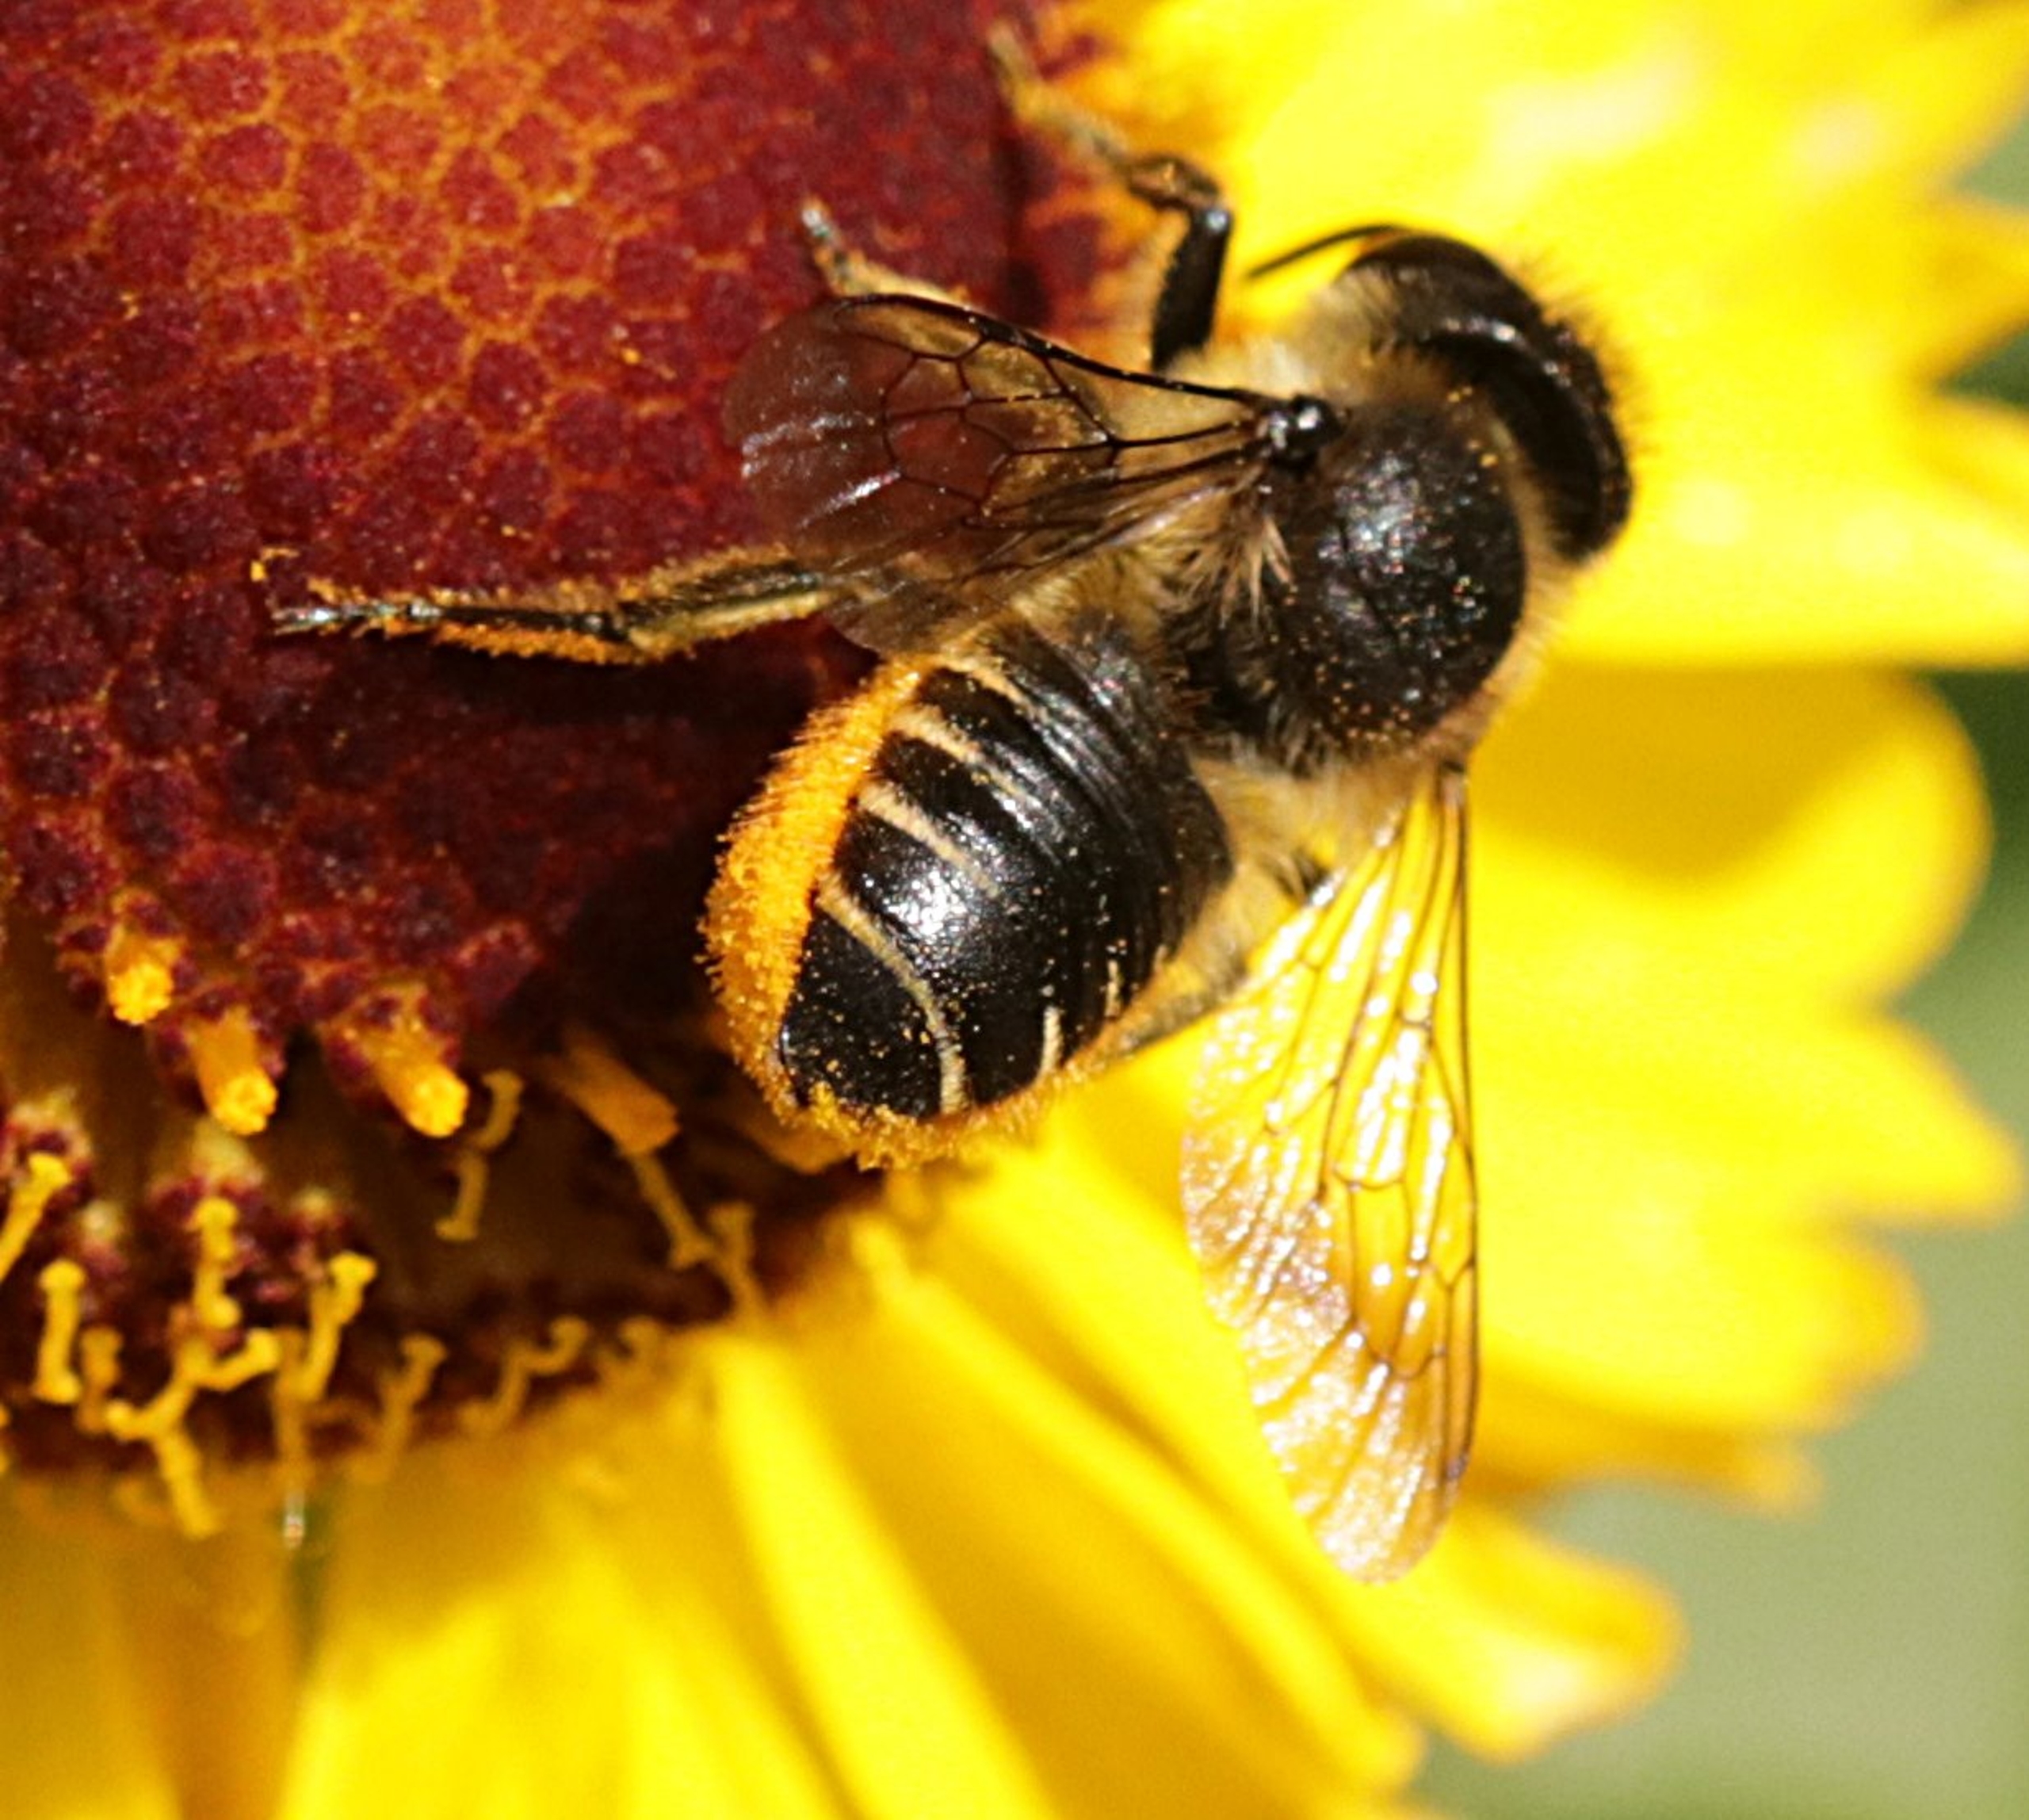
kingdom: Animalia
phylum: Arthropoda
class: Insecta
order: Hymenoptera
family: Megachilidae
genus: Megachile
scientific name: Megachile
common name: Bladskærerbier
